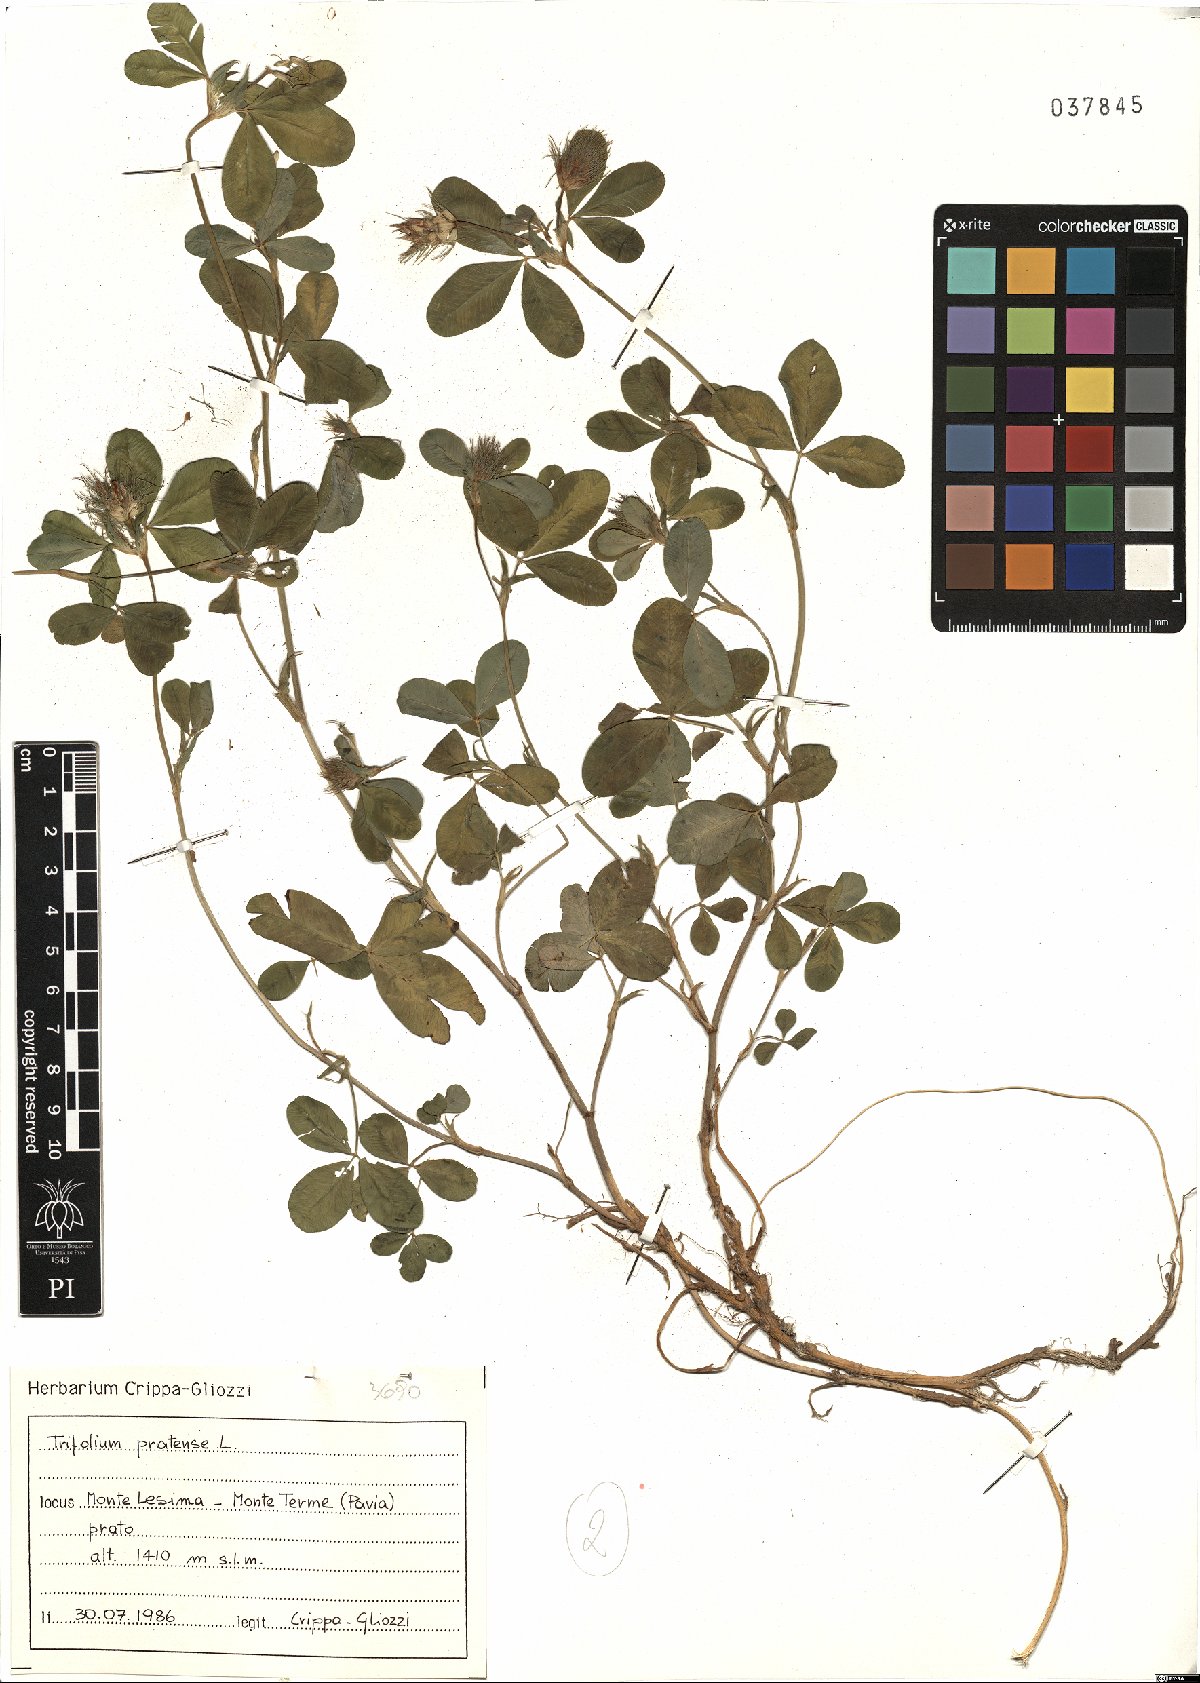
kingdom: Plantae
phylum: Tracheophyta
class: Magnoliopsida
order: Fabales
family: Fabaceae
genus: Trifolium
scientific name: Trifolium pratense
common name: Red clover
